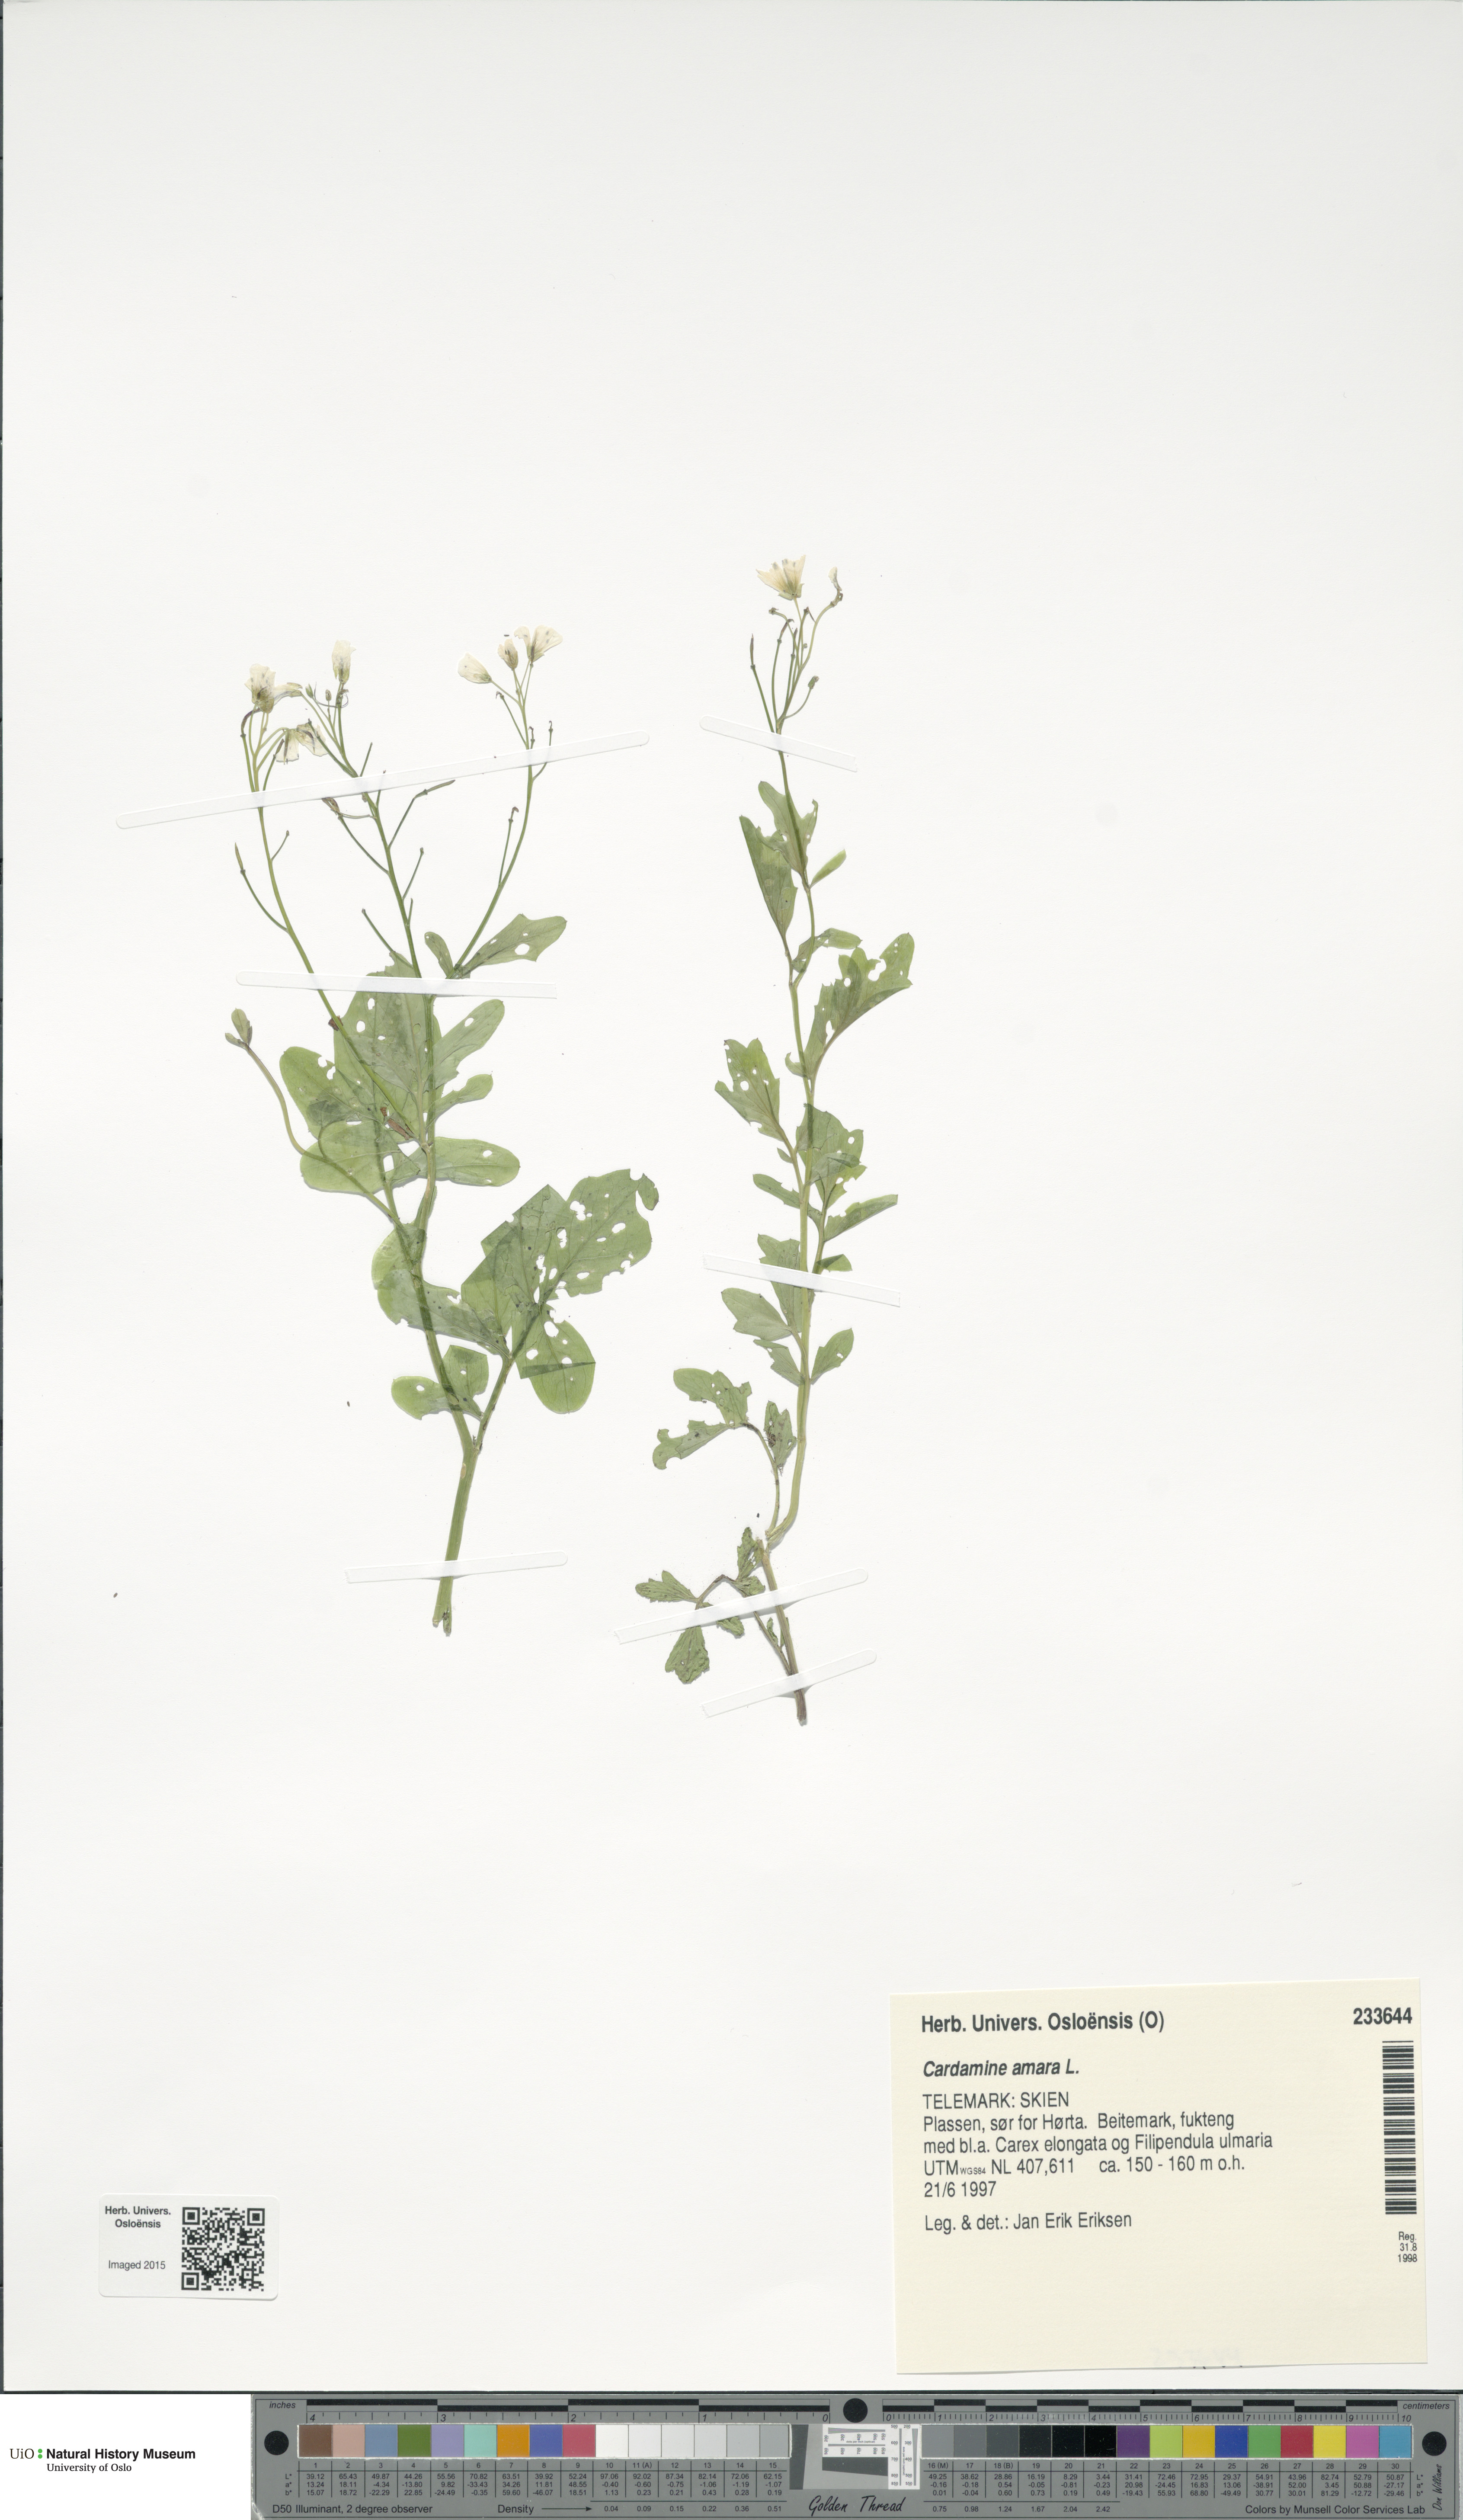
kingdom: Plantae
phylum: Tracheophyta
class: Magnoliopsida
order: Brassicales
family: Brassicaceae
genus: Cardamine
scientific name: Cardamine amara
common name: Large bitter-cress
